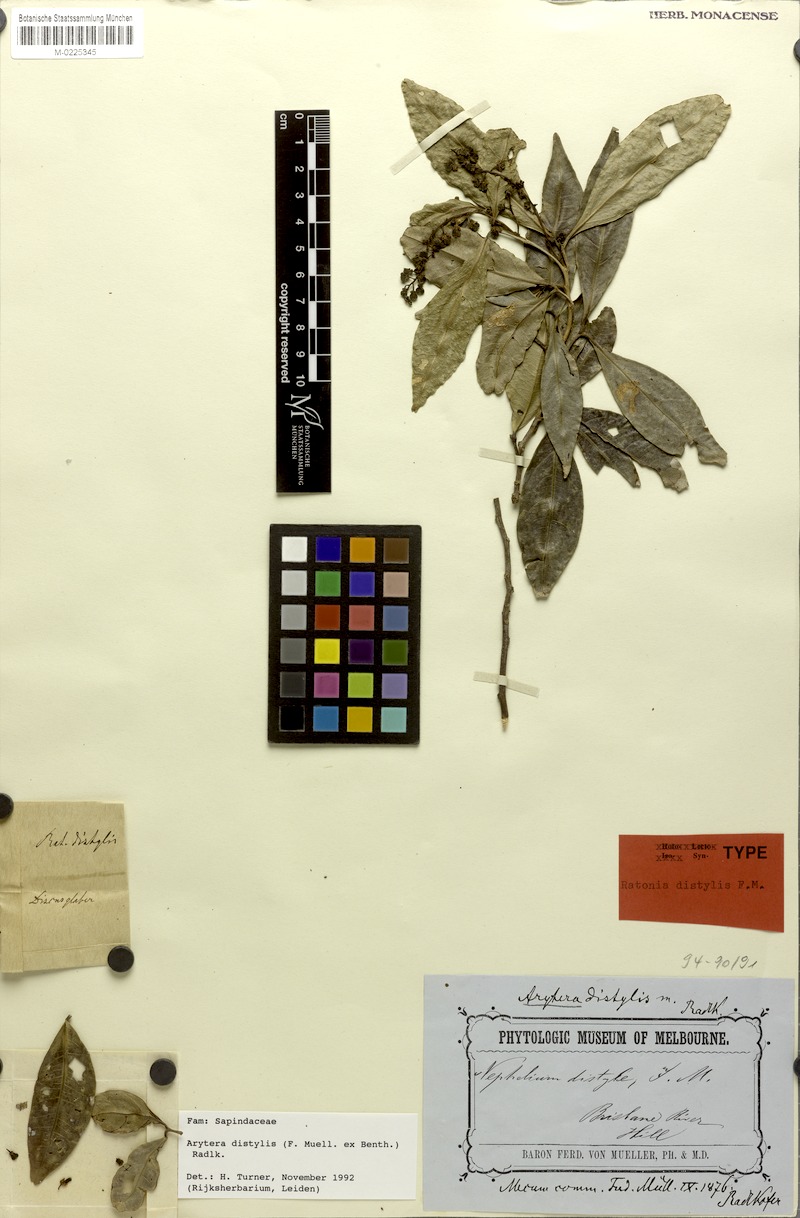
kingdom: Plantae
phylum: Tracheophyta
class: Magnoliopsida
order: Sapindales
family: Sapindaceae
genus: Arytera
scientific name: Arytera distylis
